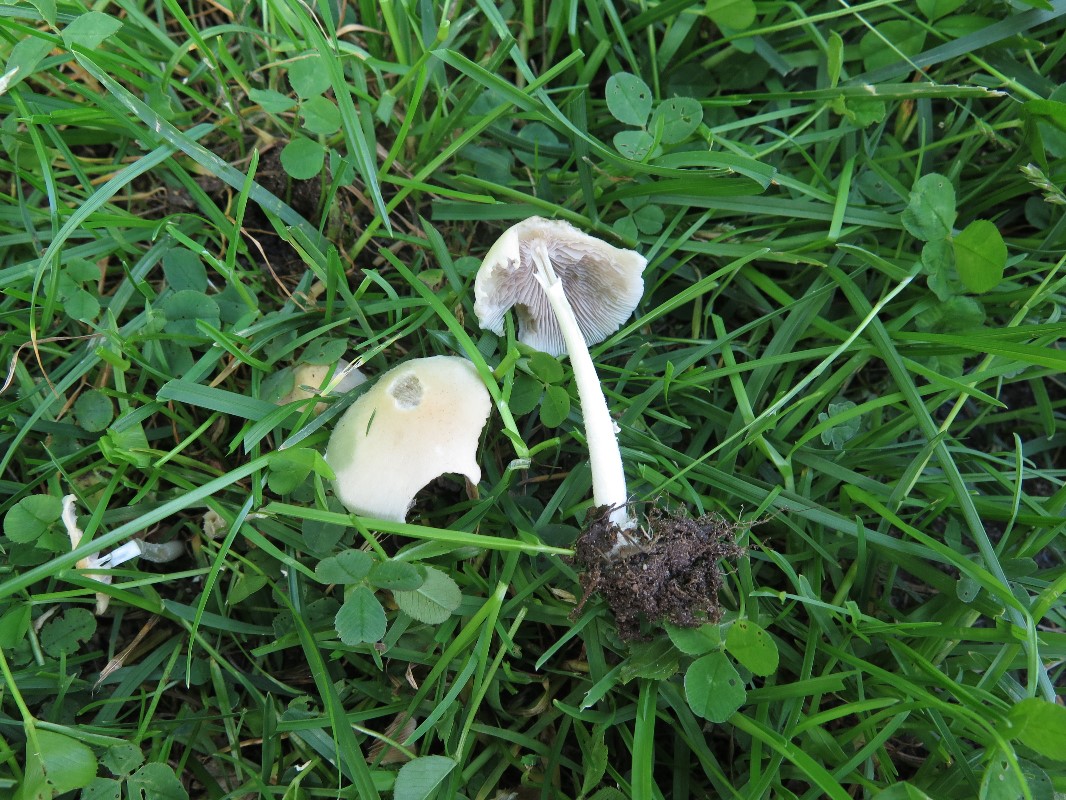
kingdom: Fungi
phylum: Basidiomycota
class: Agaricomycetes
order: Agaricales
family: Psathyrellaceae
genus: Candolleomyces
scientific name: Candolleomyces candolleanus
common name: Candolles mørkhat
